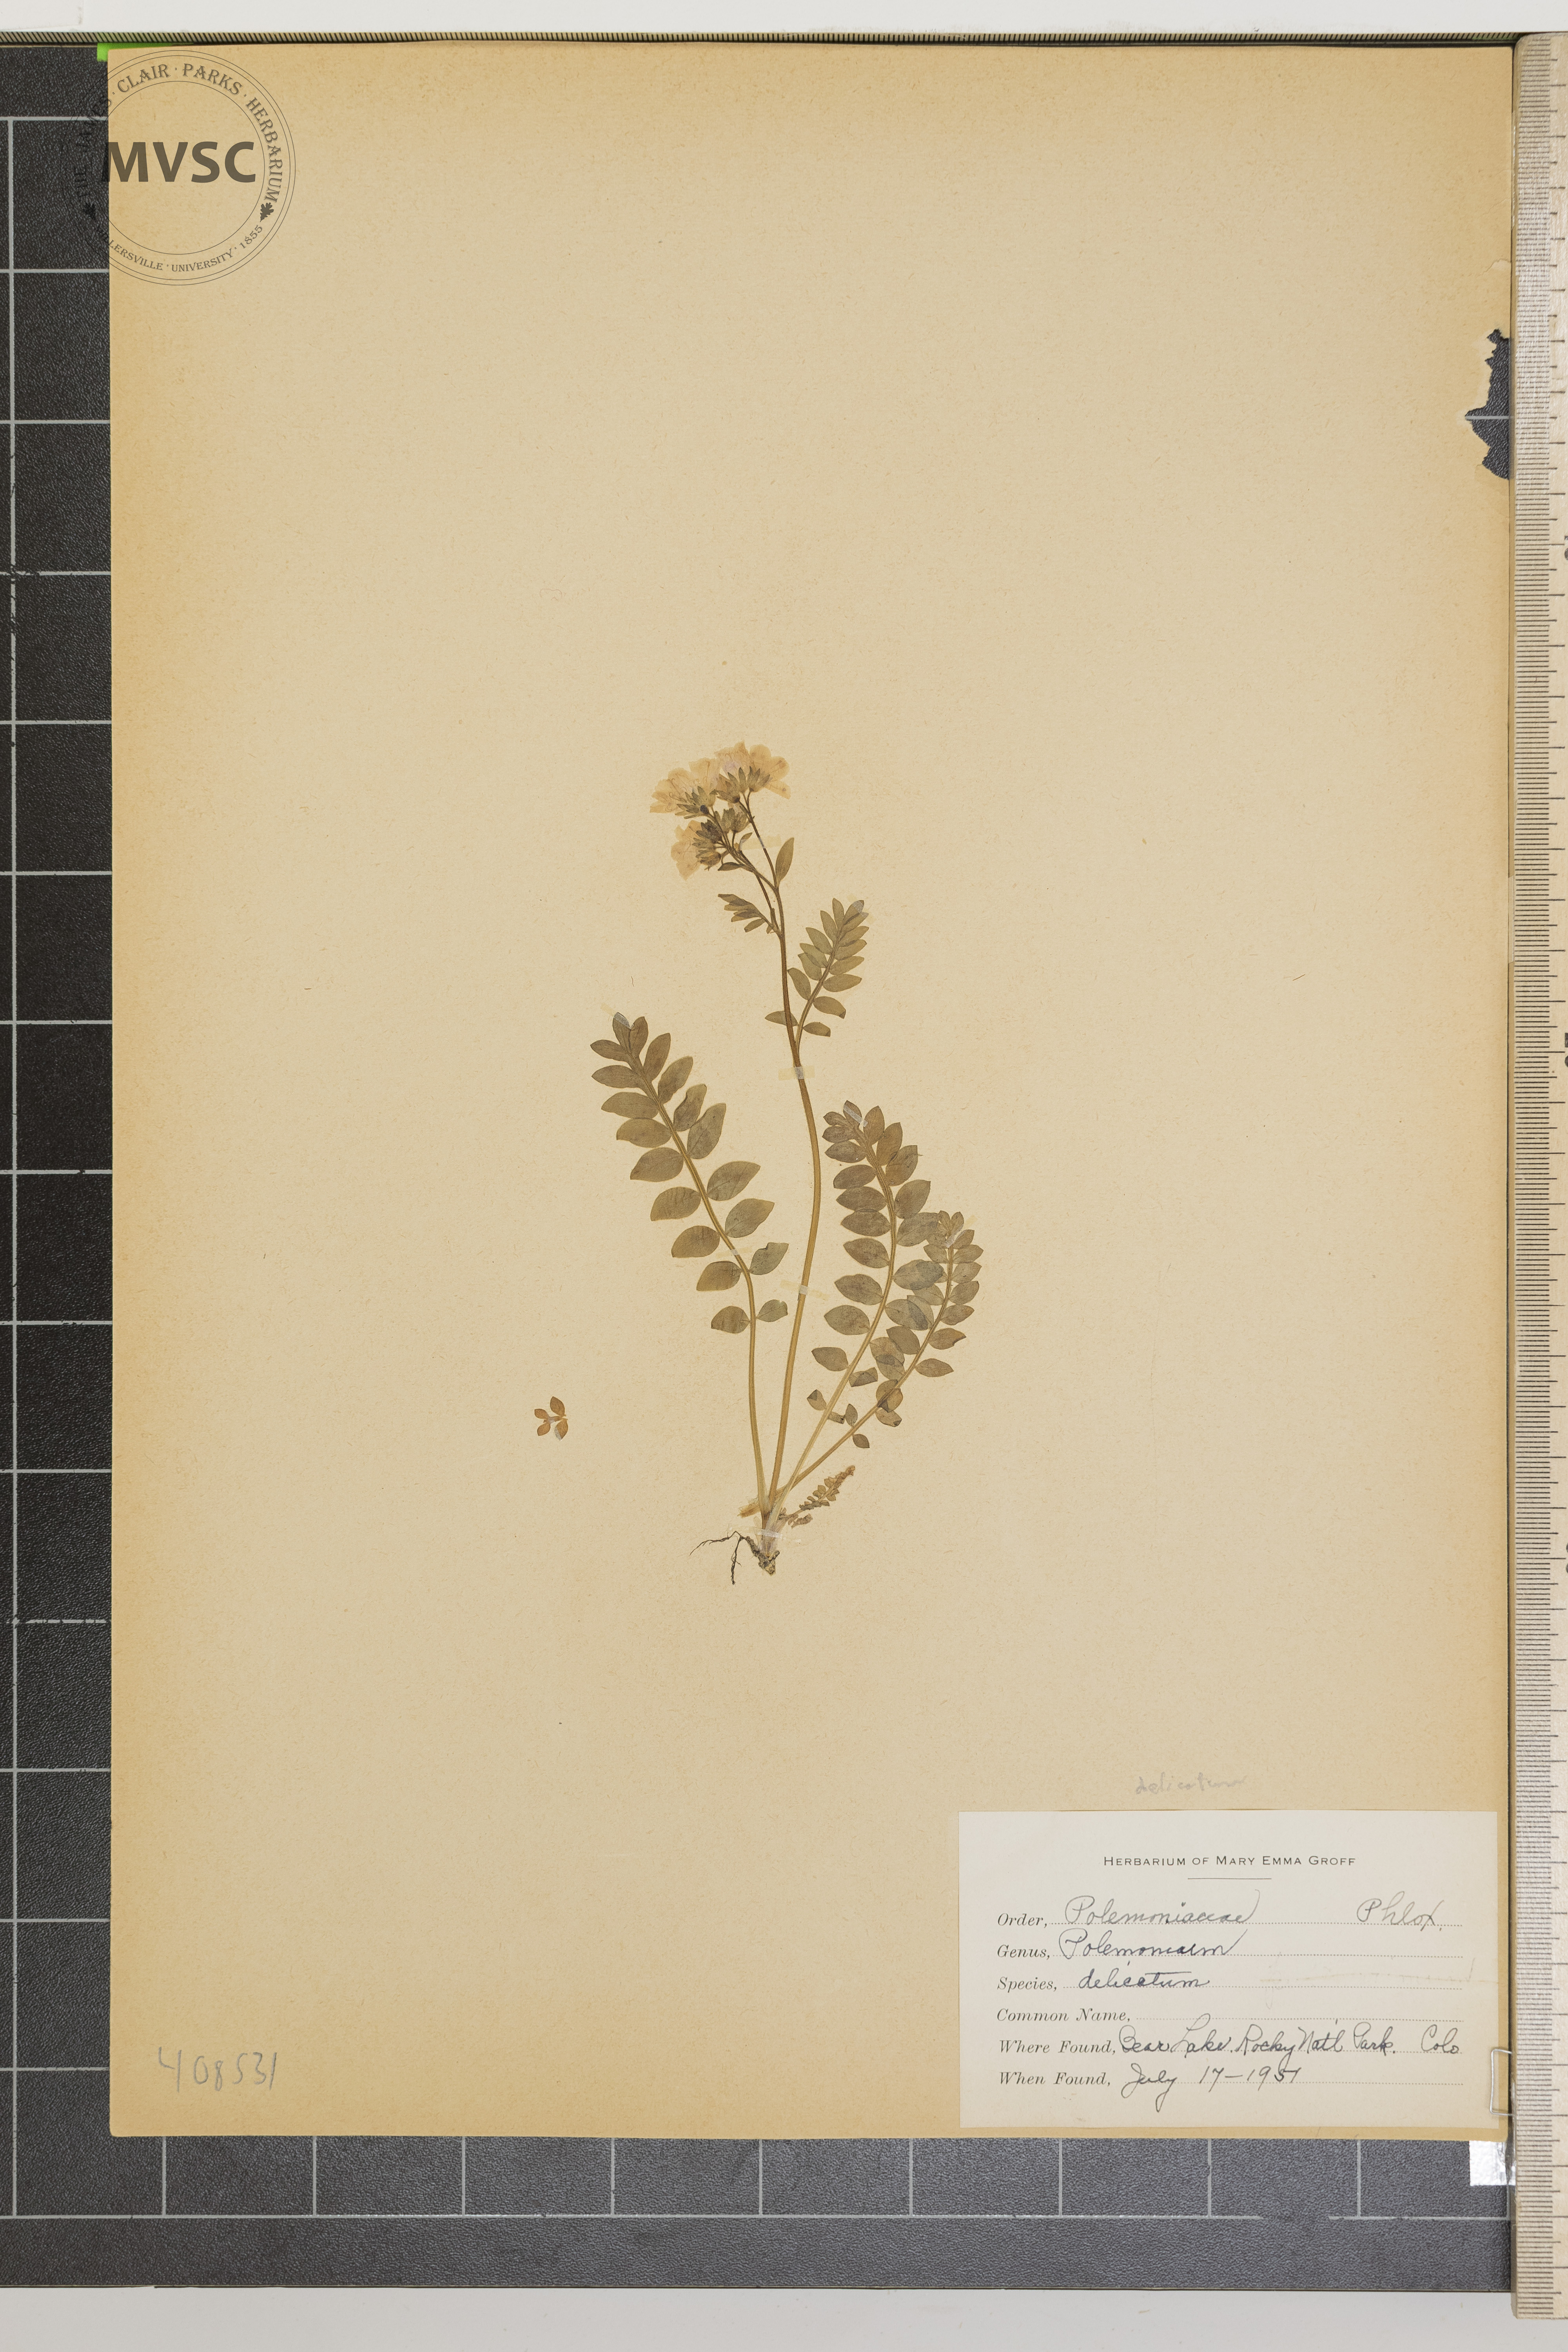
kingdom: Plantae
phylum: Tracheophyta
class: Magnoliopsida
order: Ericales
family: Polemoniaceae
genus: Polemonium
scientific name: Polemonium pulcherrimum
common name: Short jacob's-ladder
